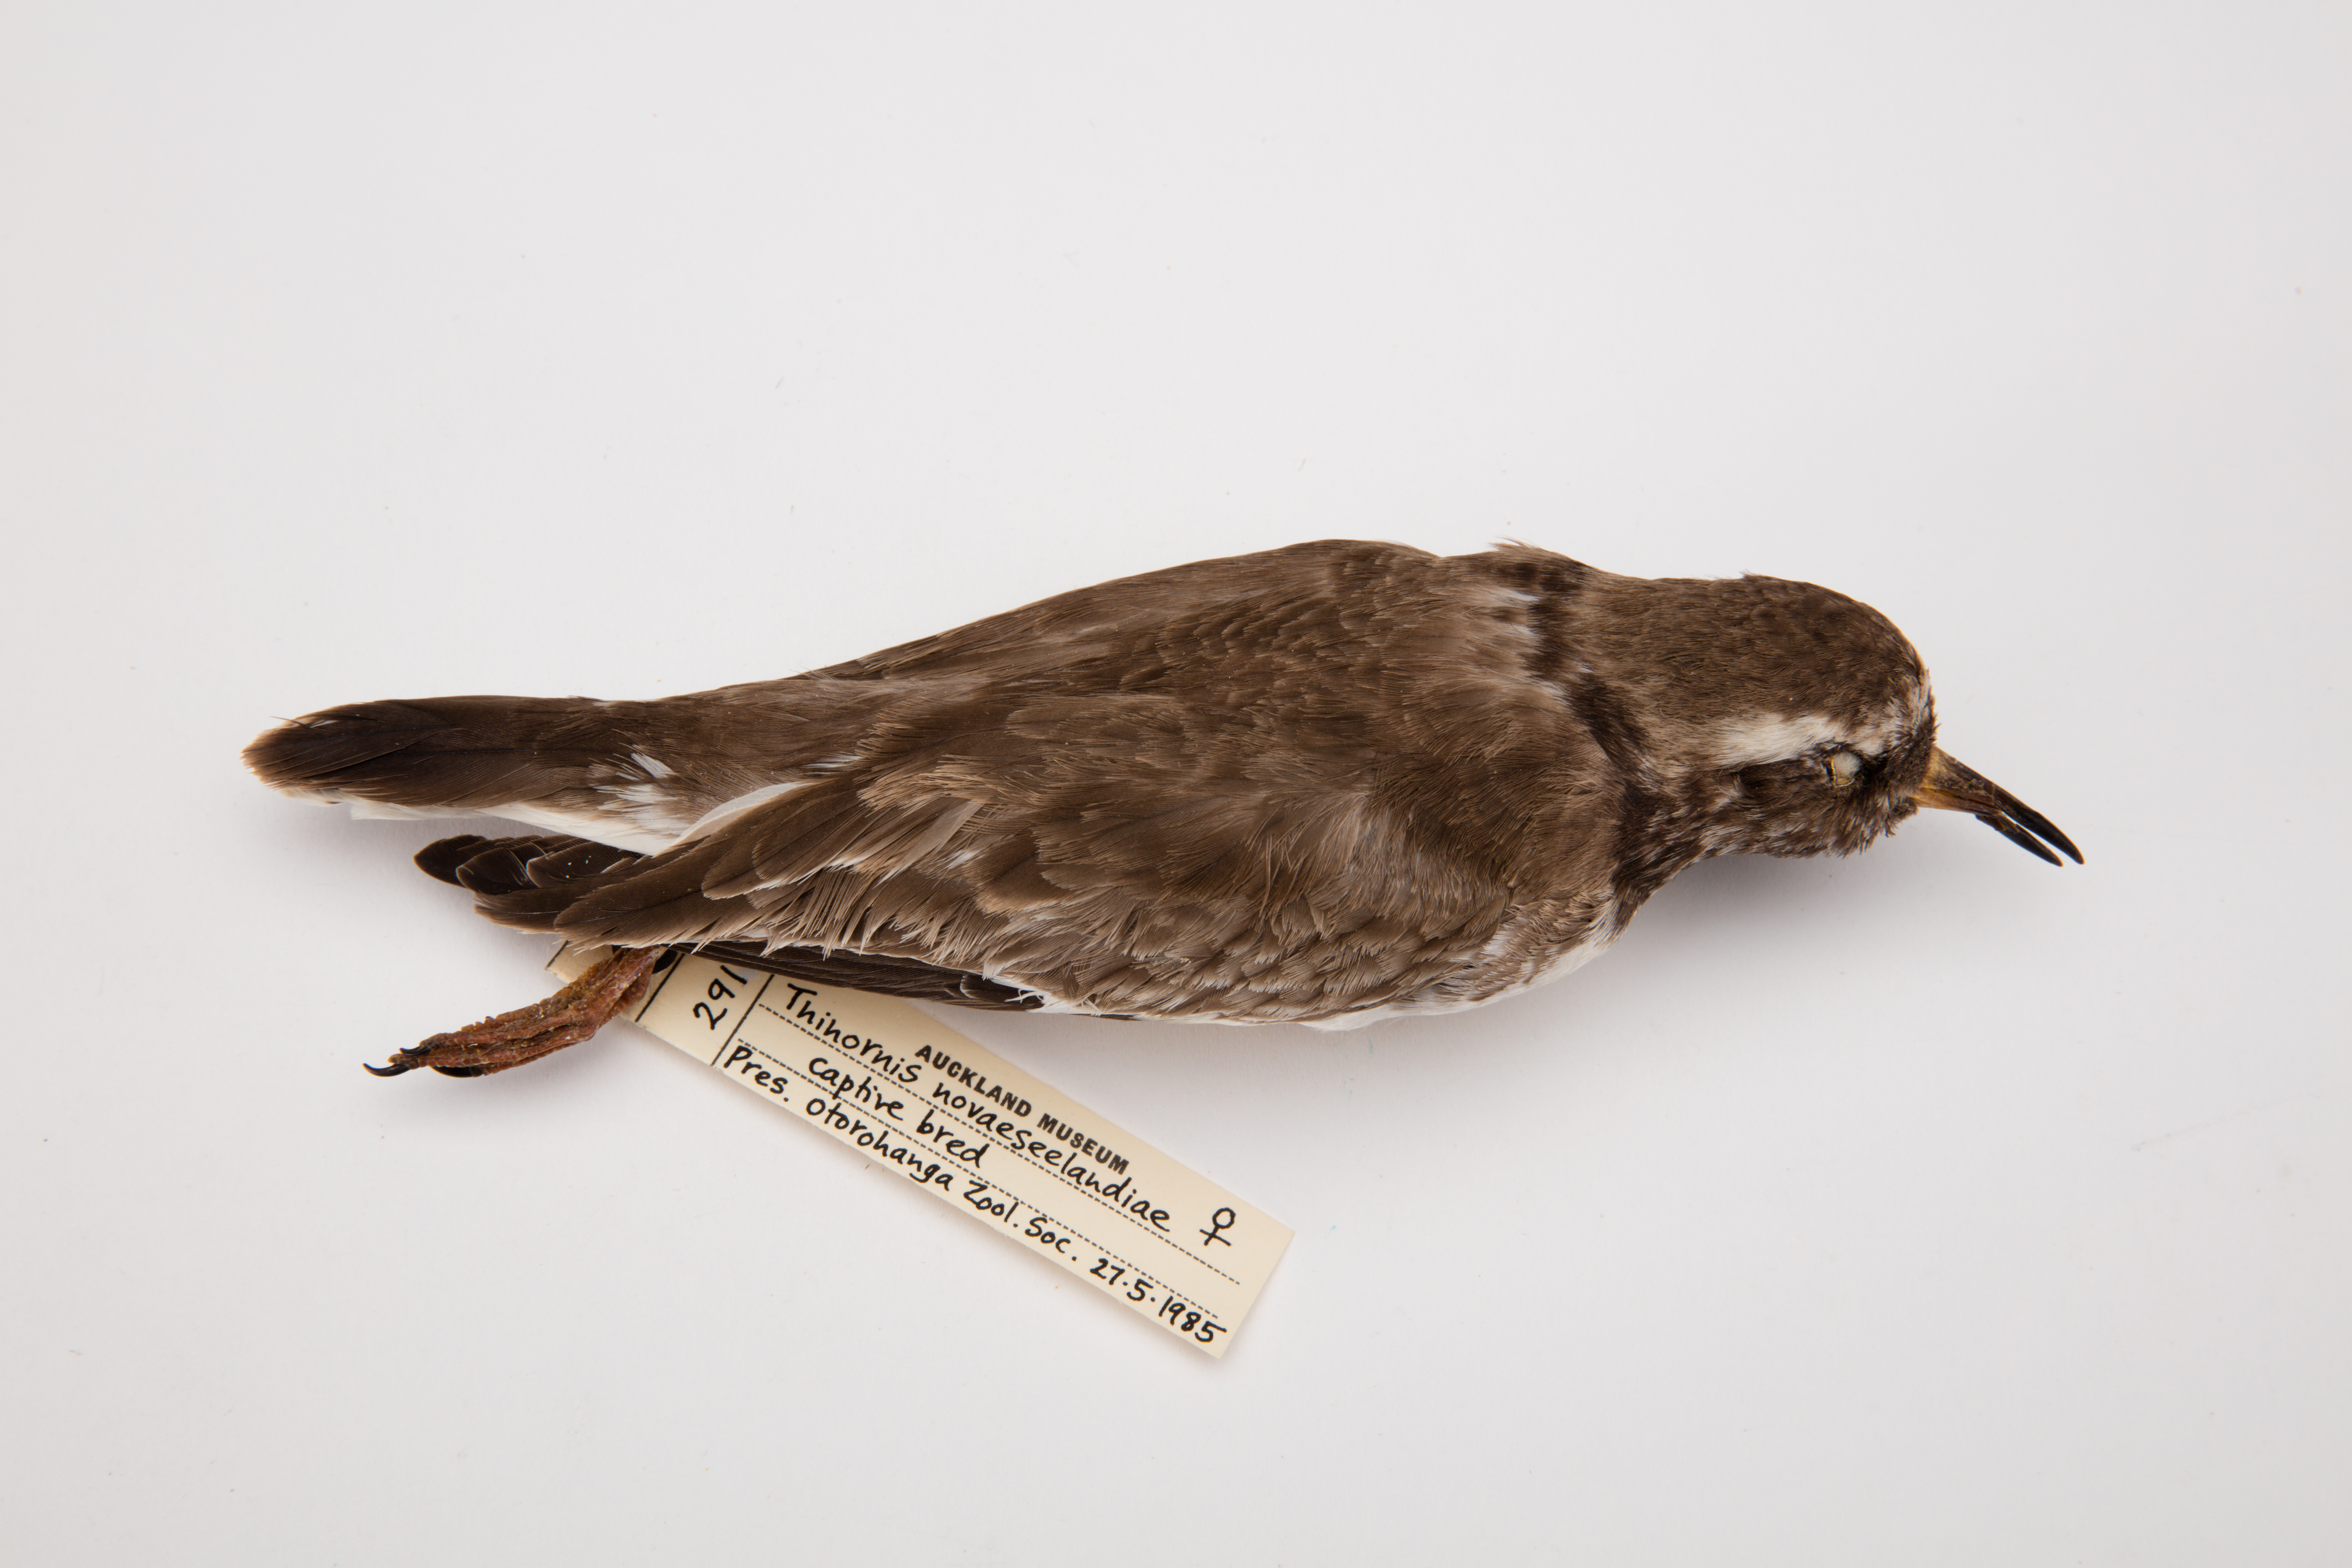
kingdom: Animalia
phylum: Chordata
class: Aves
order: Charadriiformes
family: Charadriidae
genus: Thinornis
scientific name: Thinornis novaeseelandiae
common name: Shore dotterel
